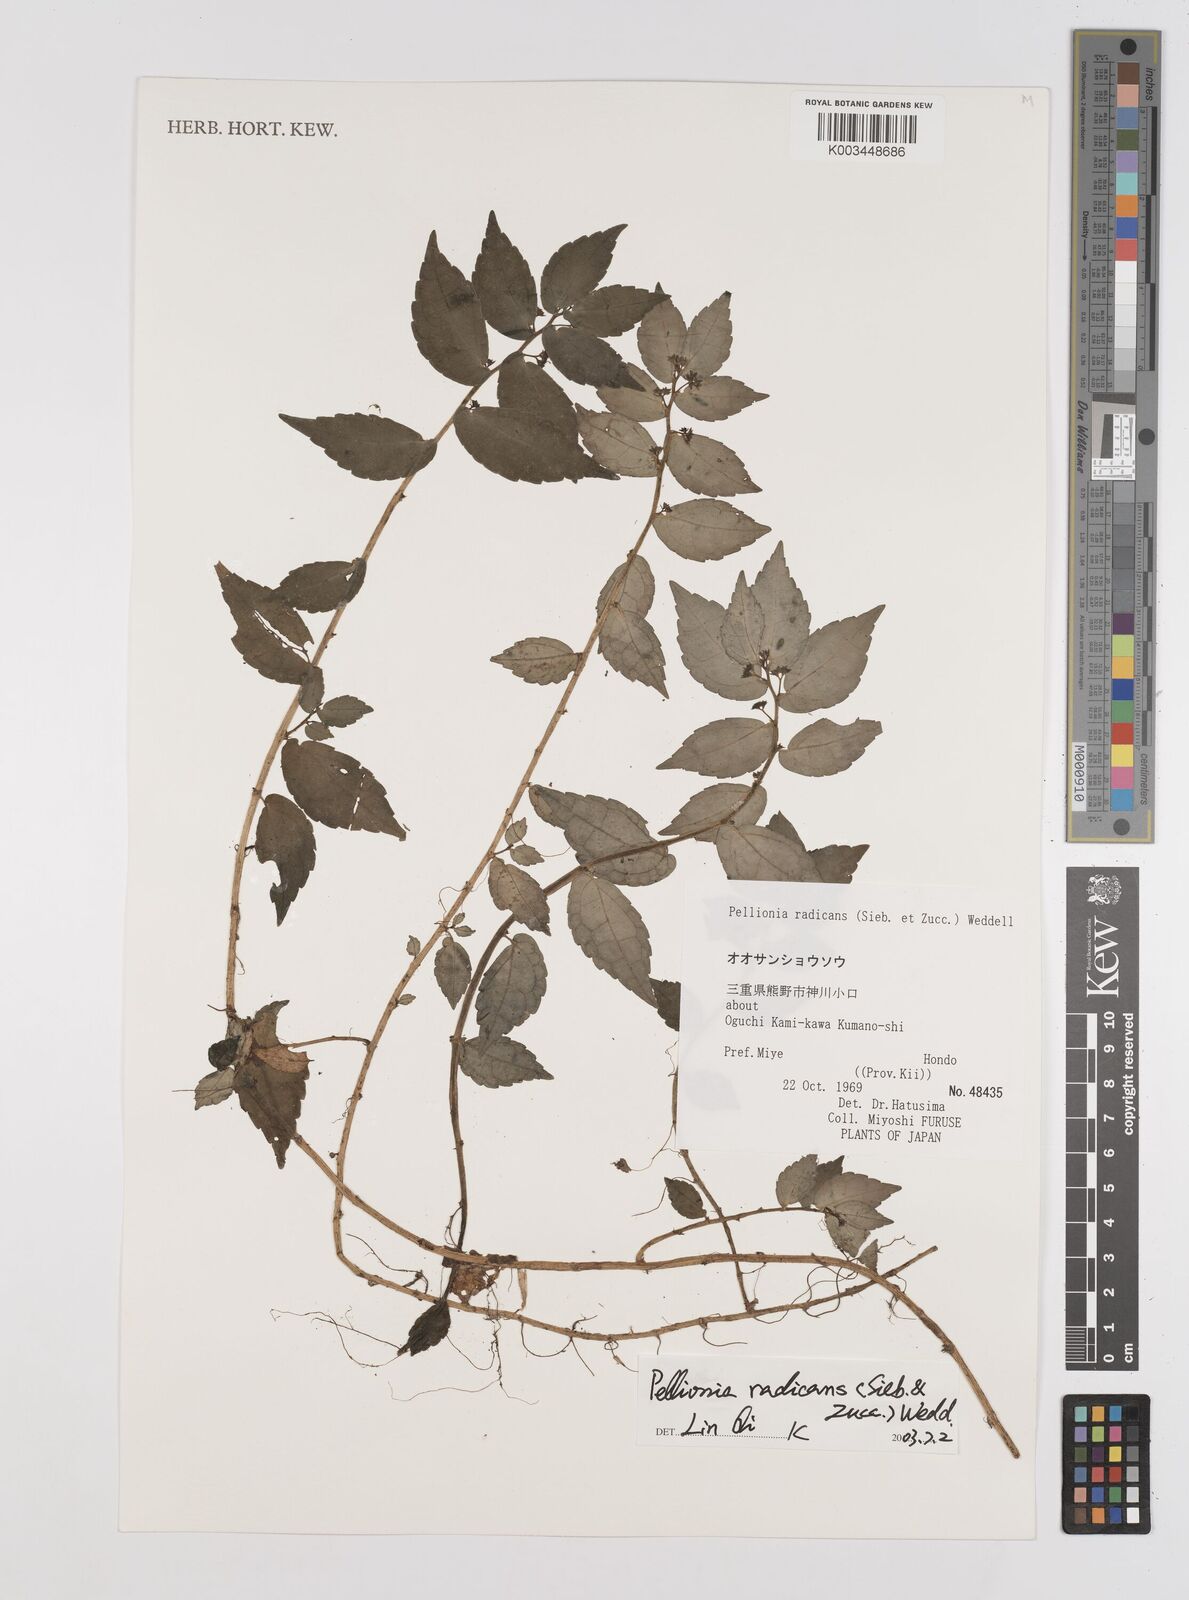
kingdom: Plantae
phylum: Tracheophyta
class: Magnoliopsida
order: Rosales
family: Urticaceae
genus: Elatostema
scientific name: Elatostema radicans
